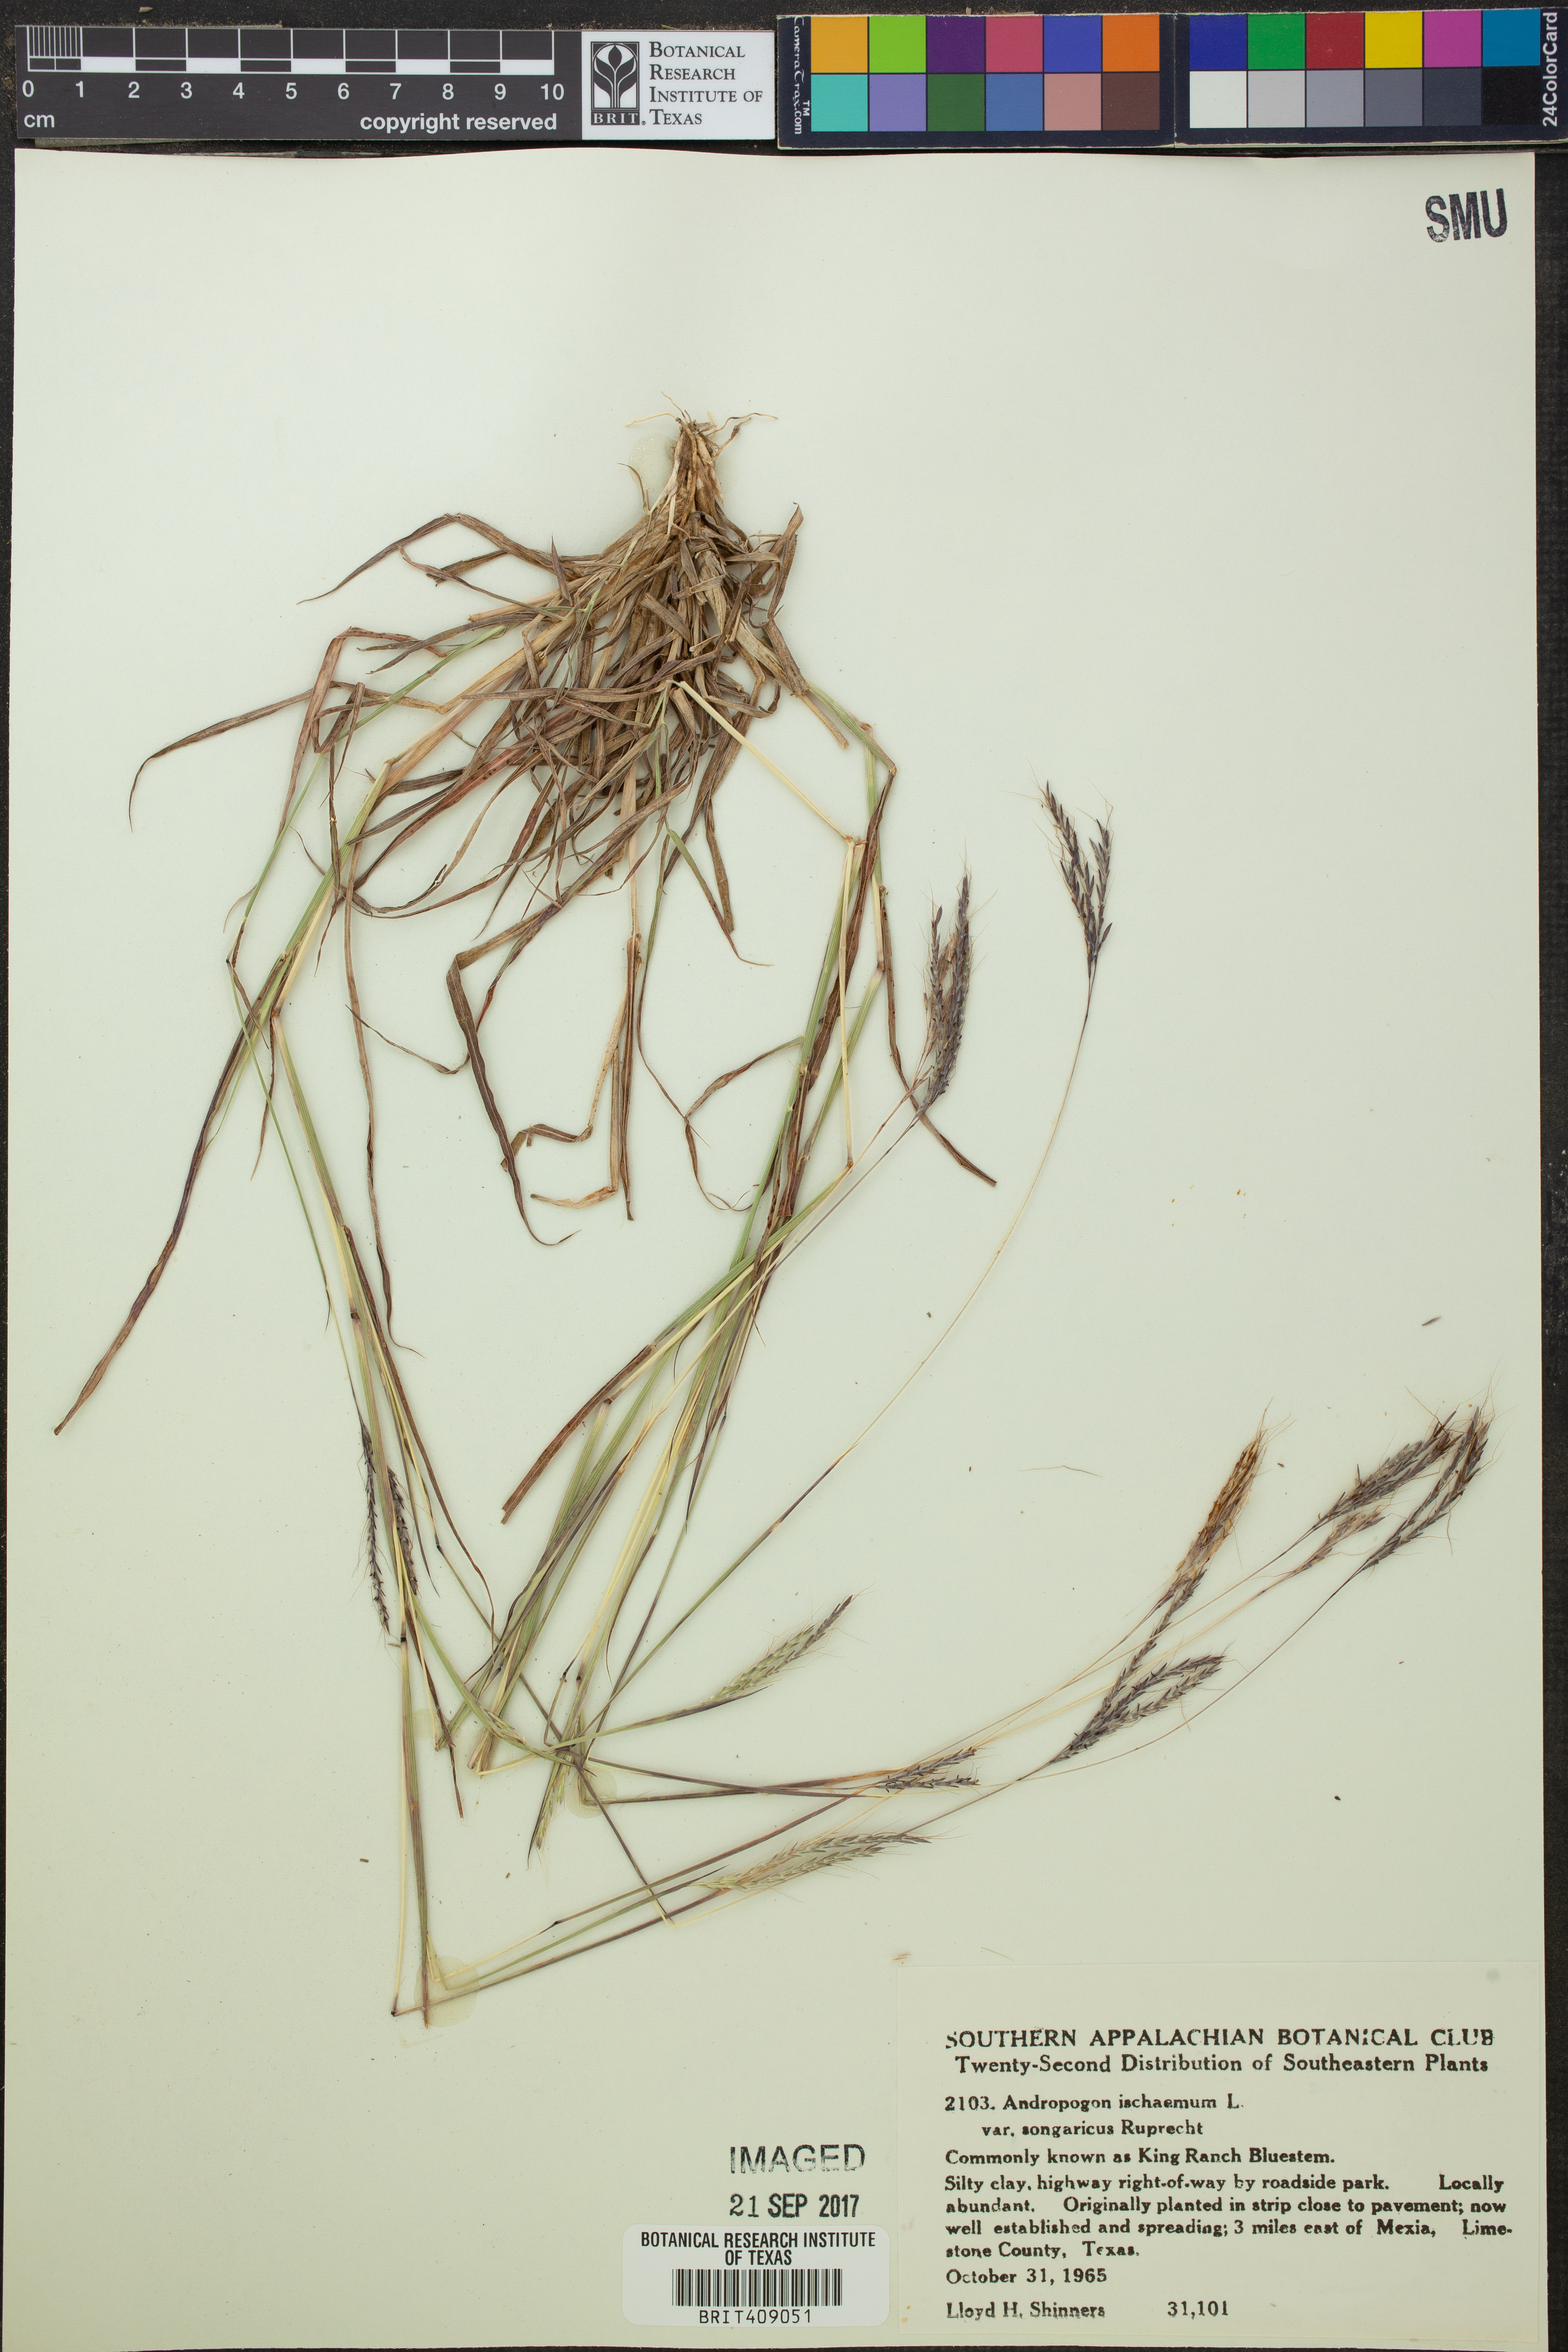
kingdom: Plantae
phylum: Tracheophyta
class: Liliopsida
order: Poales
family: Poaceae
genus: Bothriochloa
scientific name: Bothriochloa ischaemum
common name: Yellow bluestem
